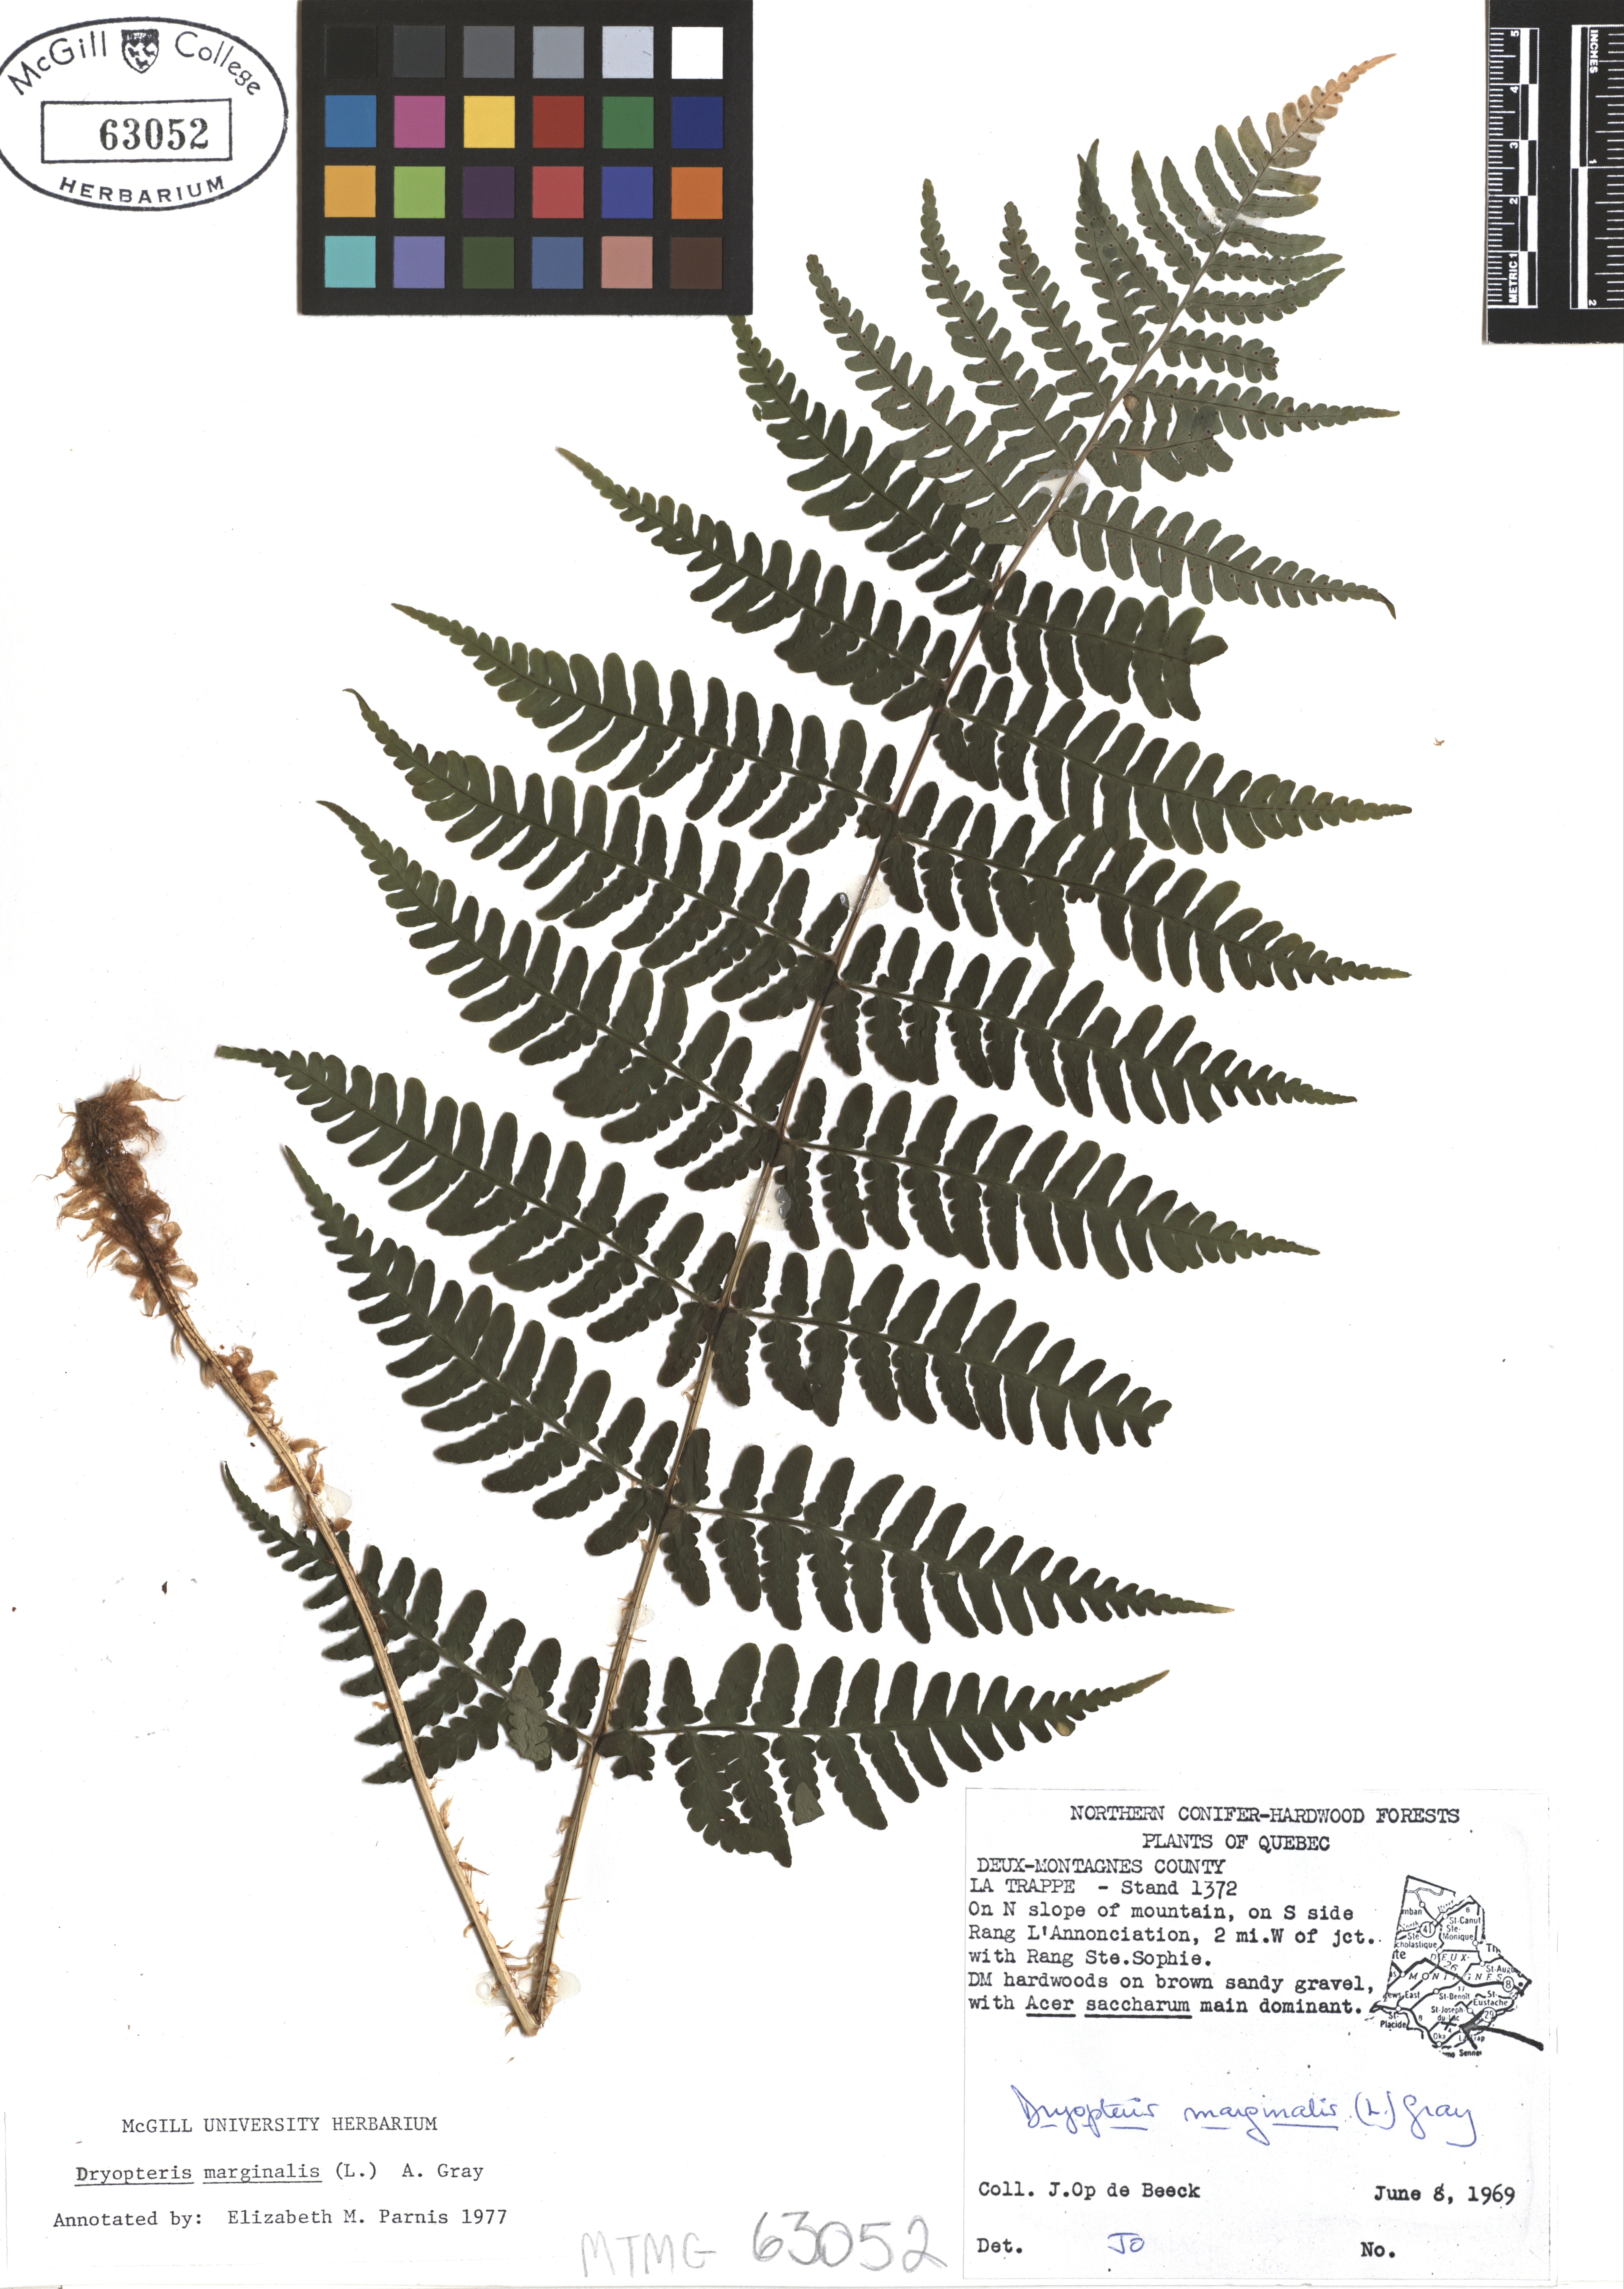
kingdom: Plantae
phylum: Tracheophyta
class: Polypodiopsida
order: Polypodiales
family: Dryopteridaceae
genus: Dryopteris
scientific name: Dryopteris marginalis
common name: Marginal wood fern
